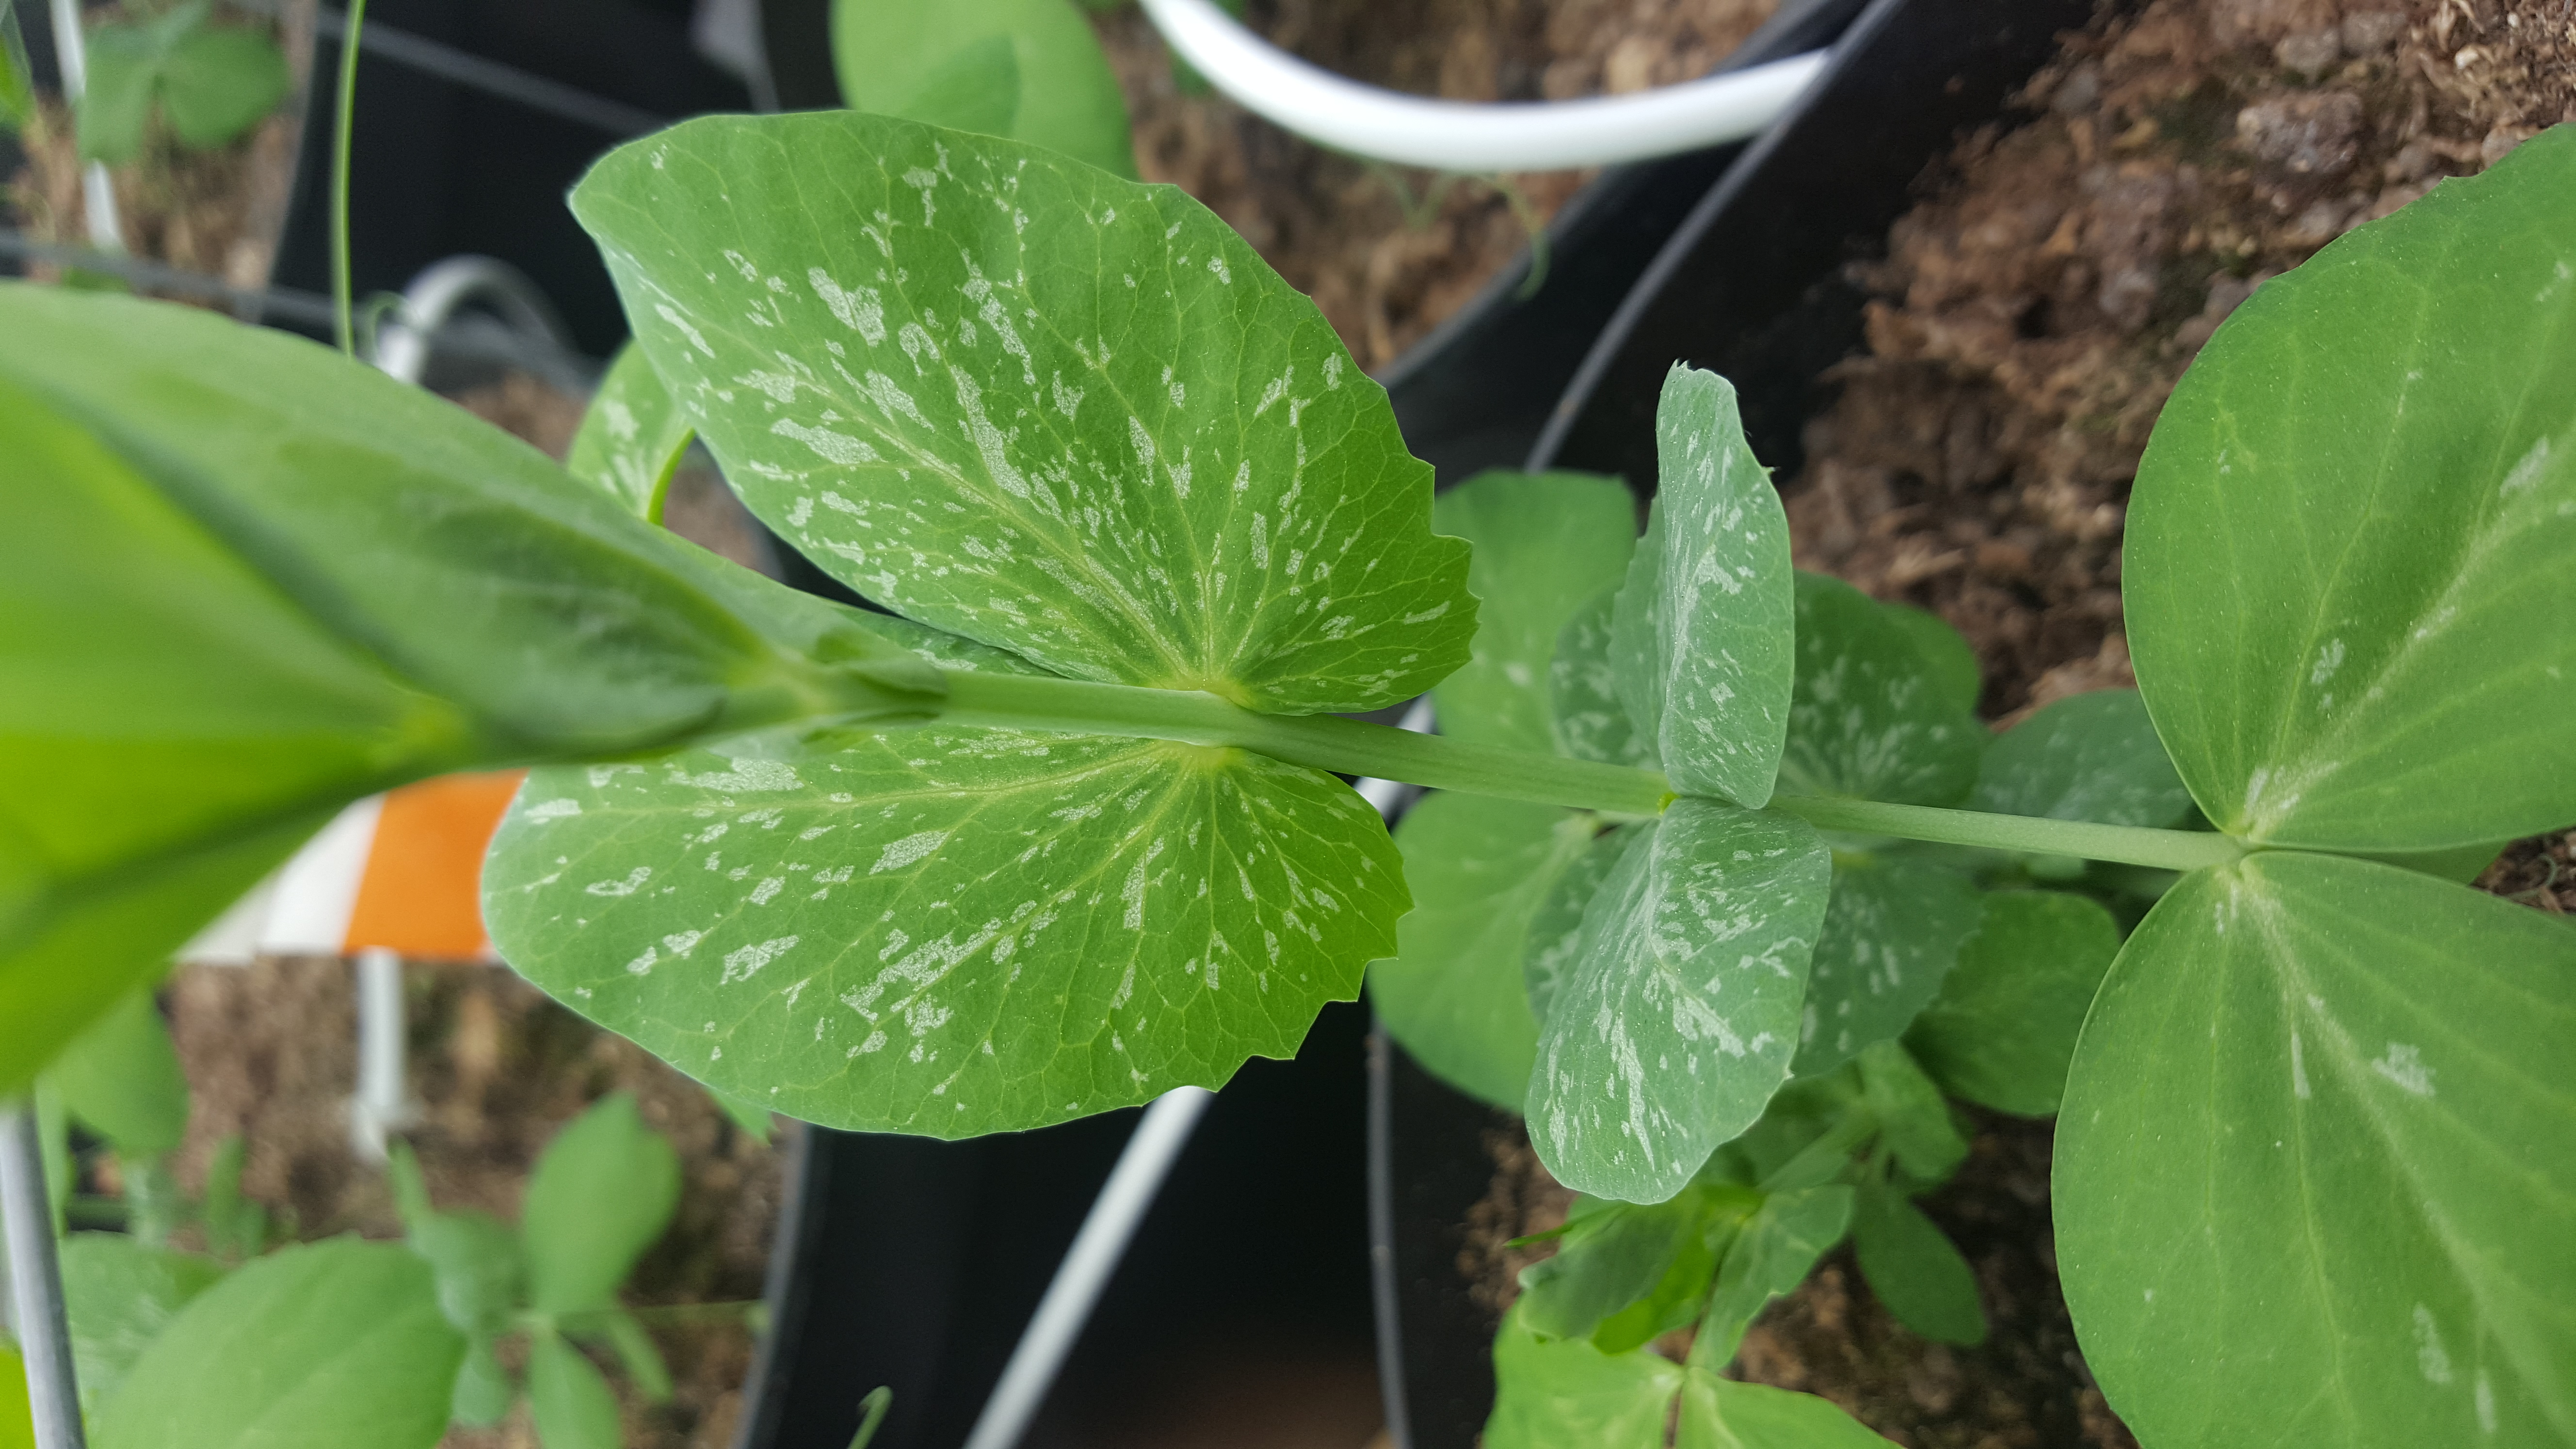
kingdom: Plantae
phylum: Tracheophyta
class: Magnoliopsida
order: Fabales
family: Fabaceae
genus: Lathyrus
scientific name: Lathyrus oleraceus
